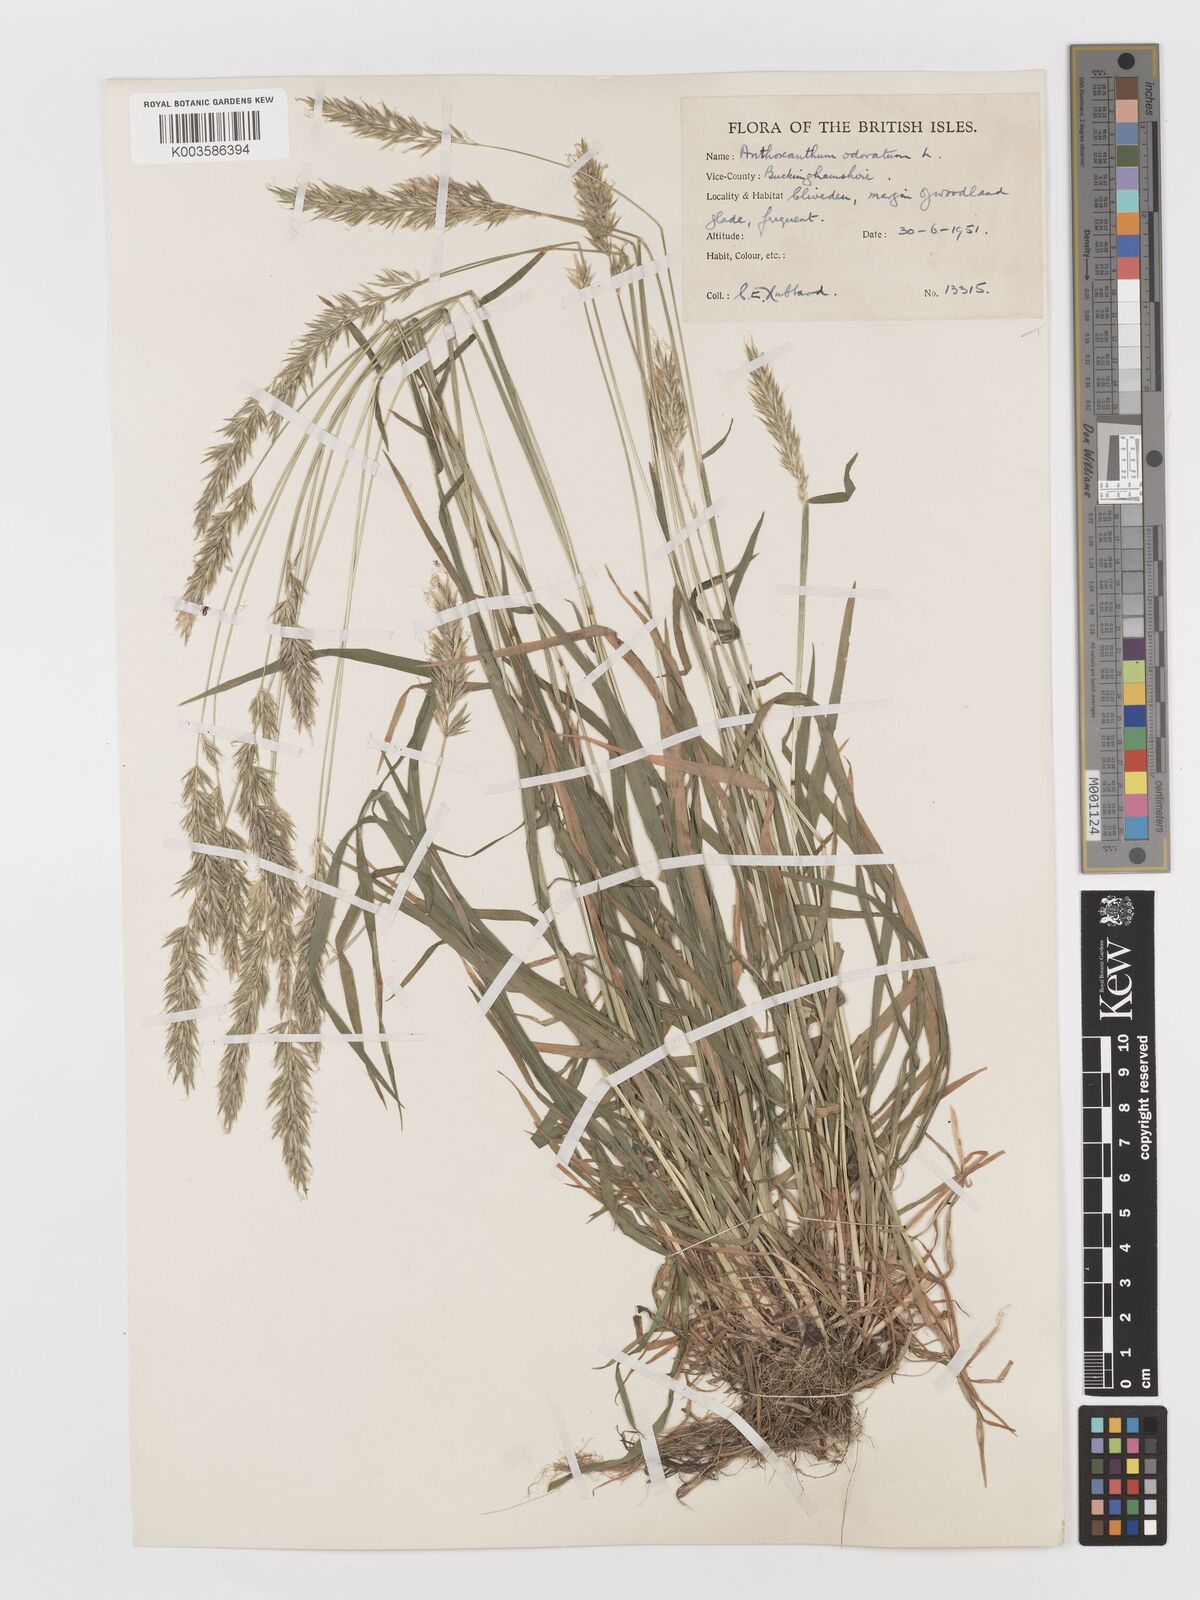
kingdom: Plantae
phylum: Tracheophyta
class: Liliopsida
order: Poales
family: Poaceae
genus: Anthoxanthum
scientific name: Anthoxanthum odoratum
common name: Sweet vernalgrass
